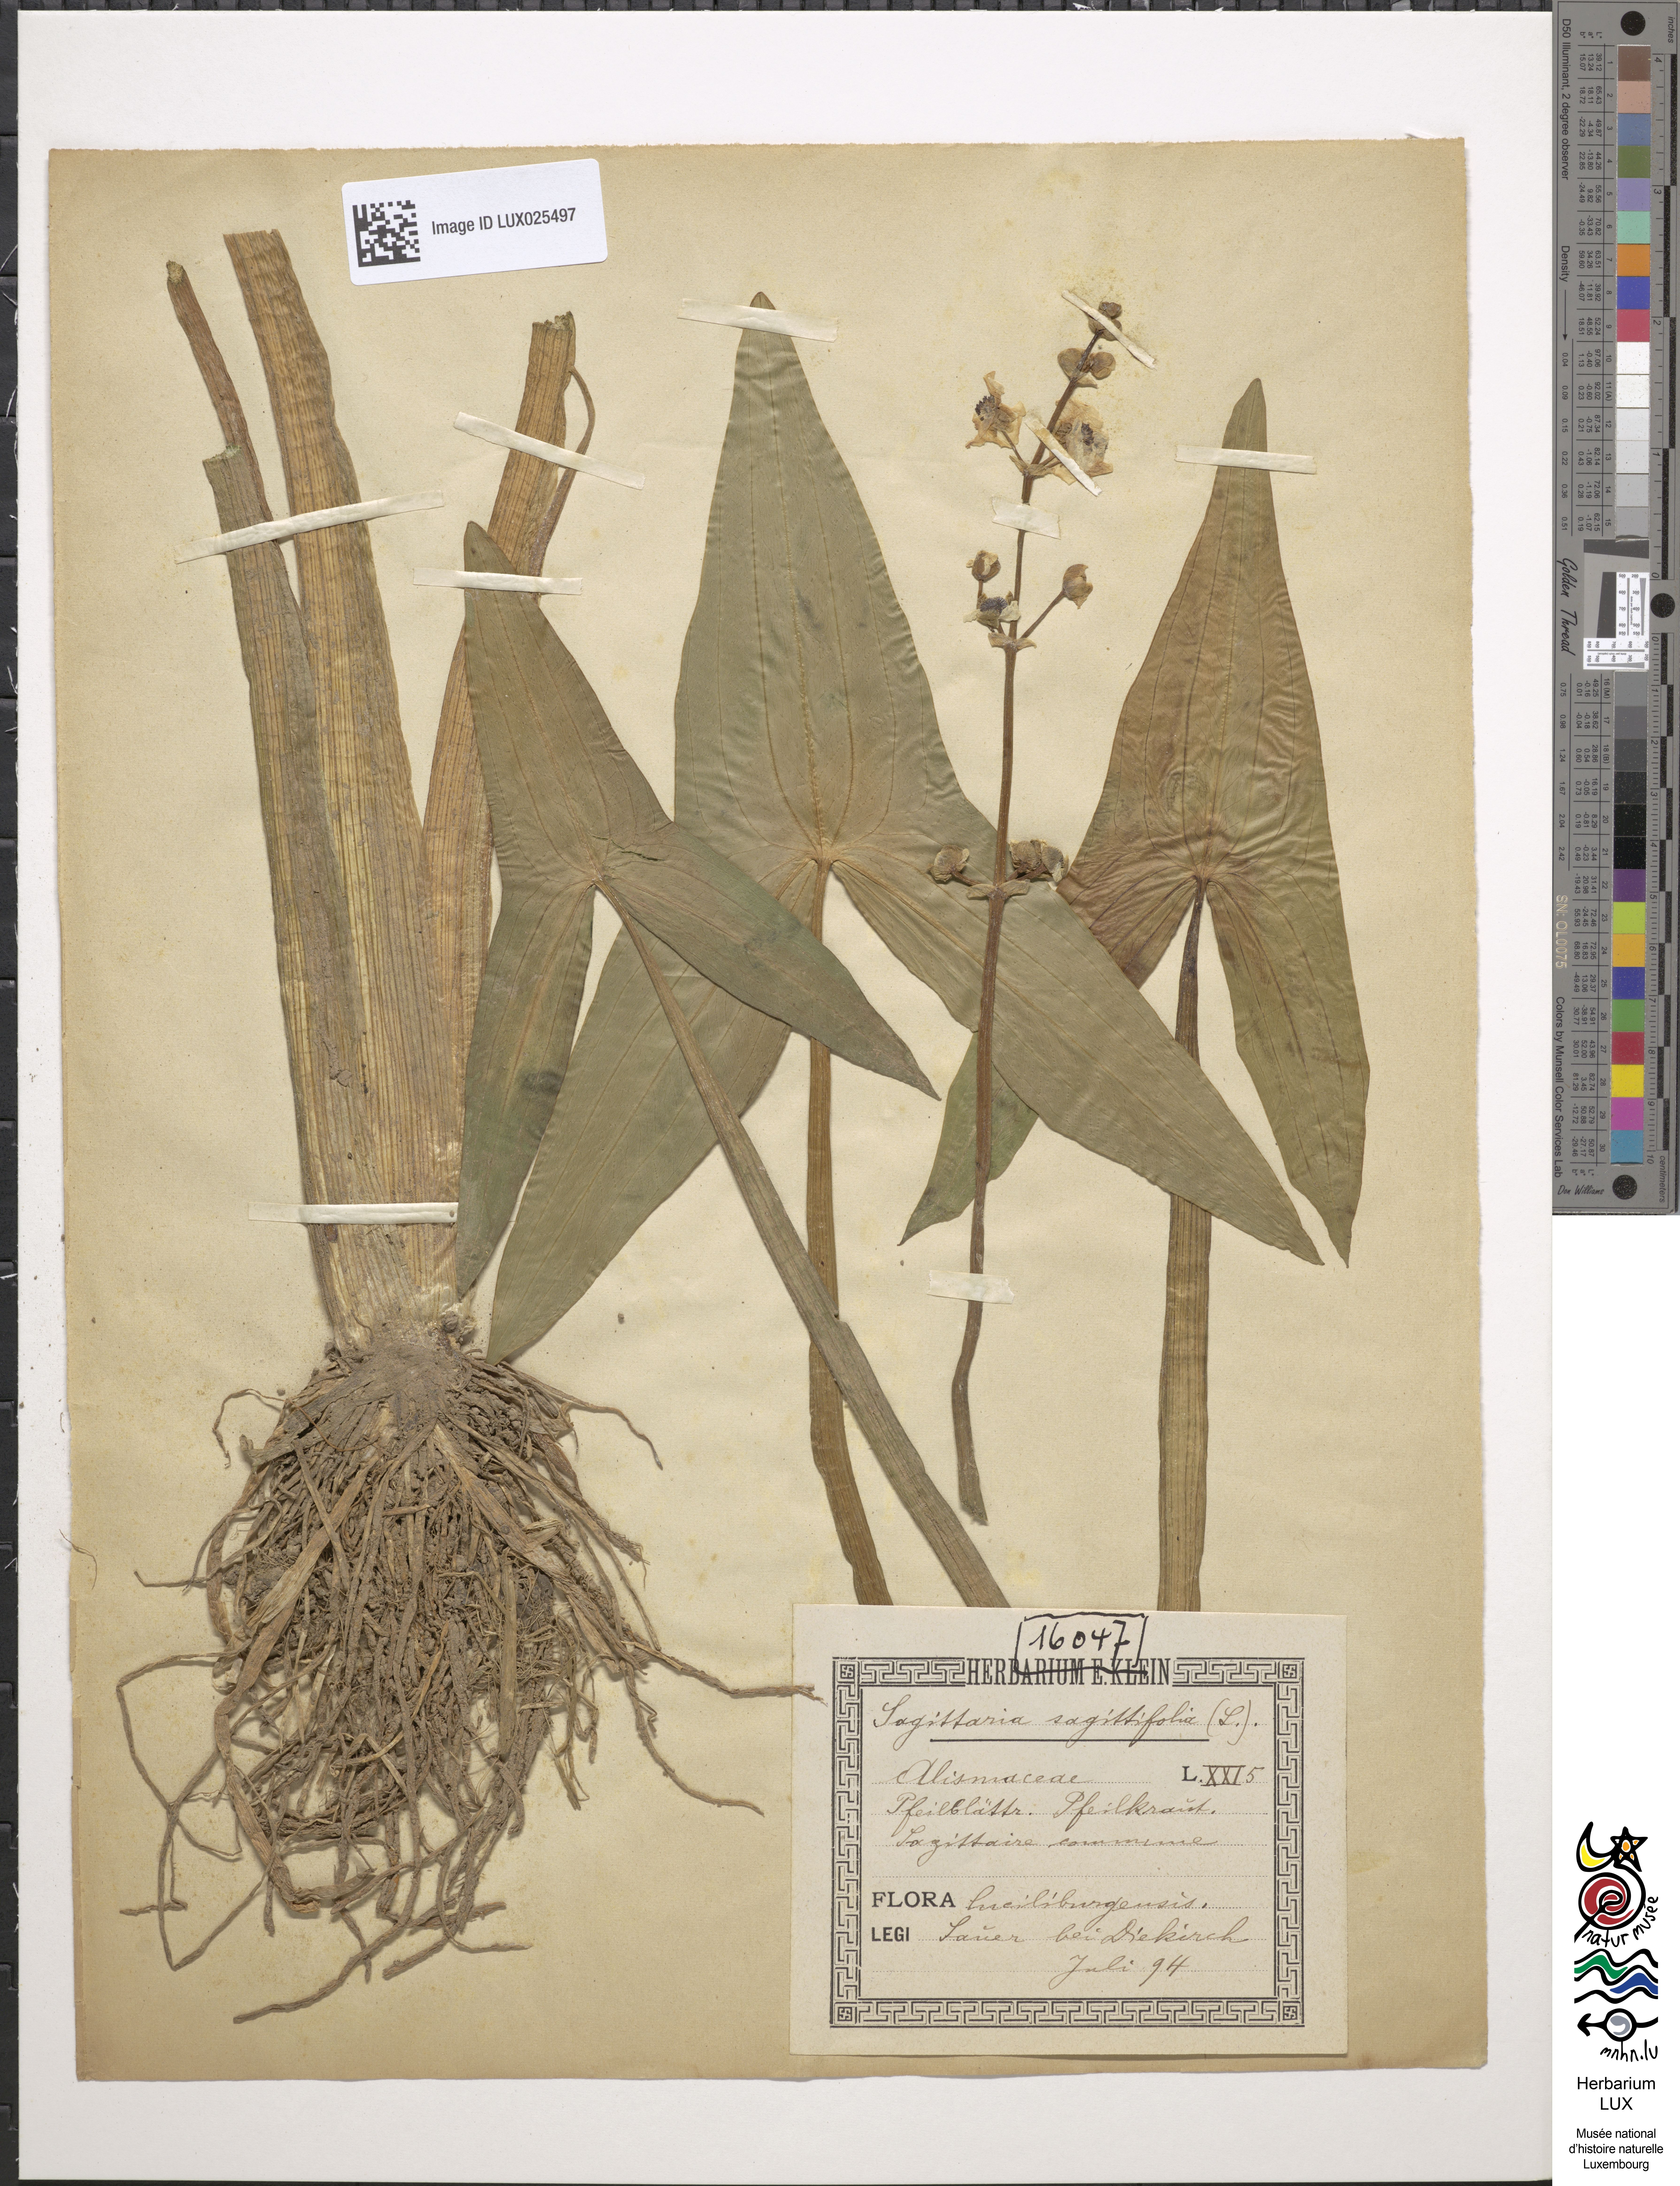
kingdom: Plantae
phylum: Tracheophyta
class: Liliopsida
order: Alismatales
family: Alismataceae
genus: Sagittaria
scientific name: Sagittaria sagittifolia
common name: Arrowhead
